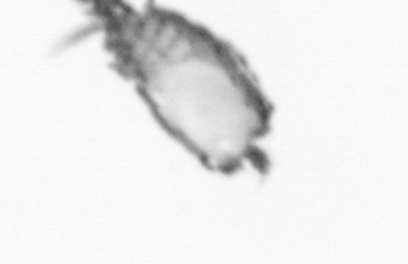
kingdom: Animalia
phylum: Annelida
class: Polychaeta
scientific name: Polychaeta
